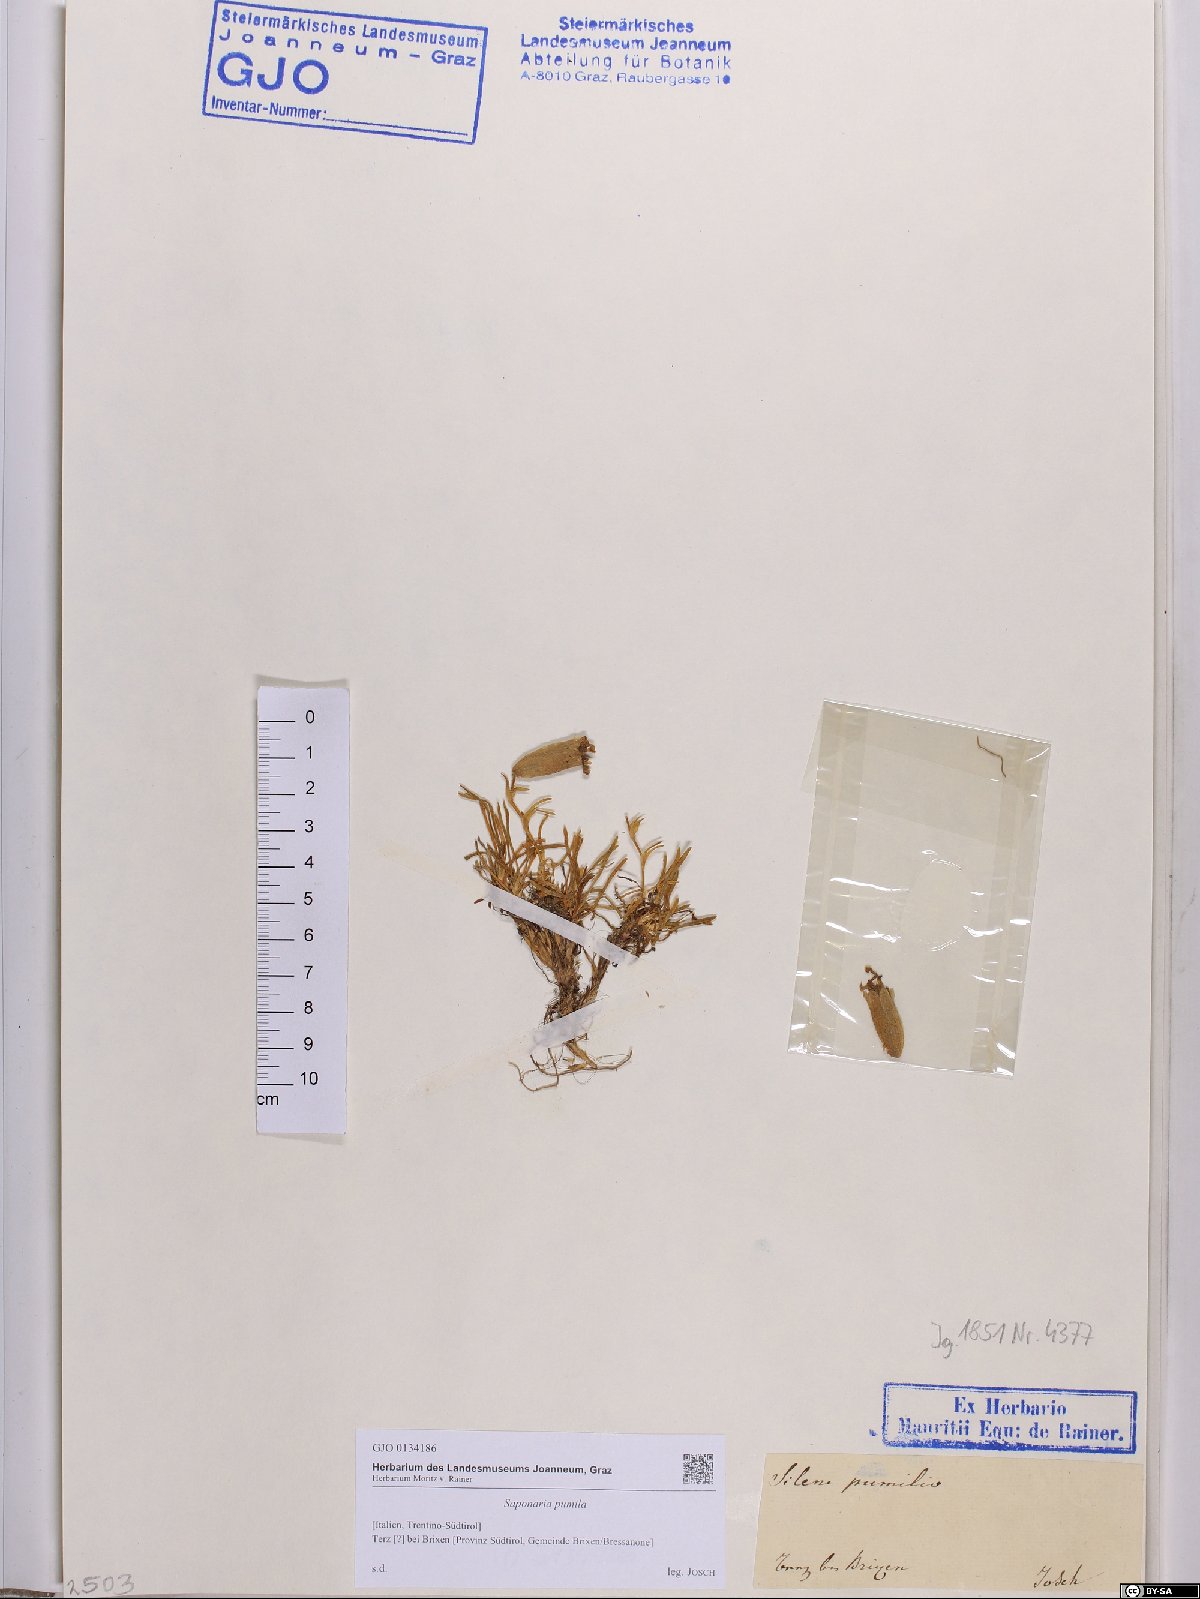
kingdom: Plantae
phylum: Tracheophyta
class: Magnoliopsida
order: Caryophyllales
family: Caryophyllaceae
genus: Saponaria
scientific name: Saponaria pumila
